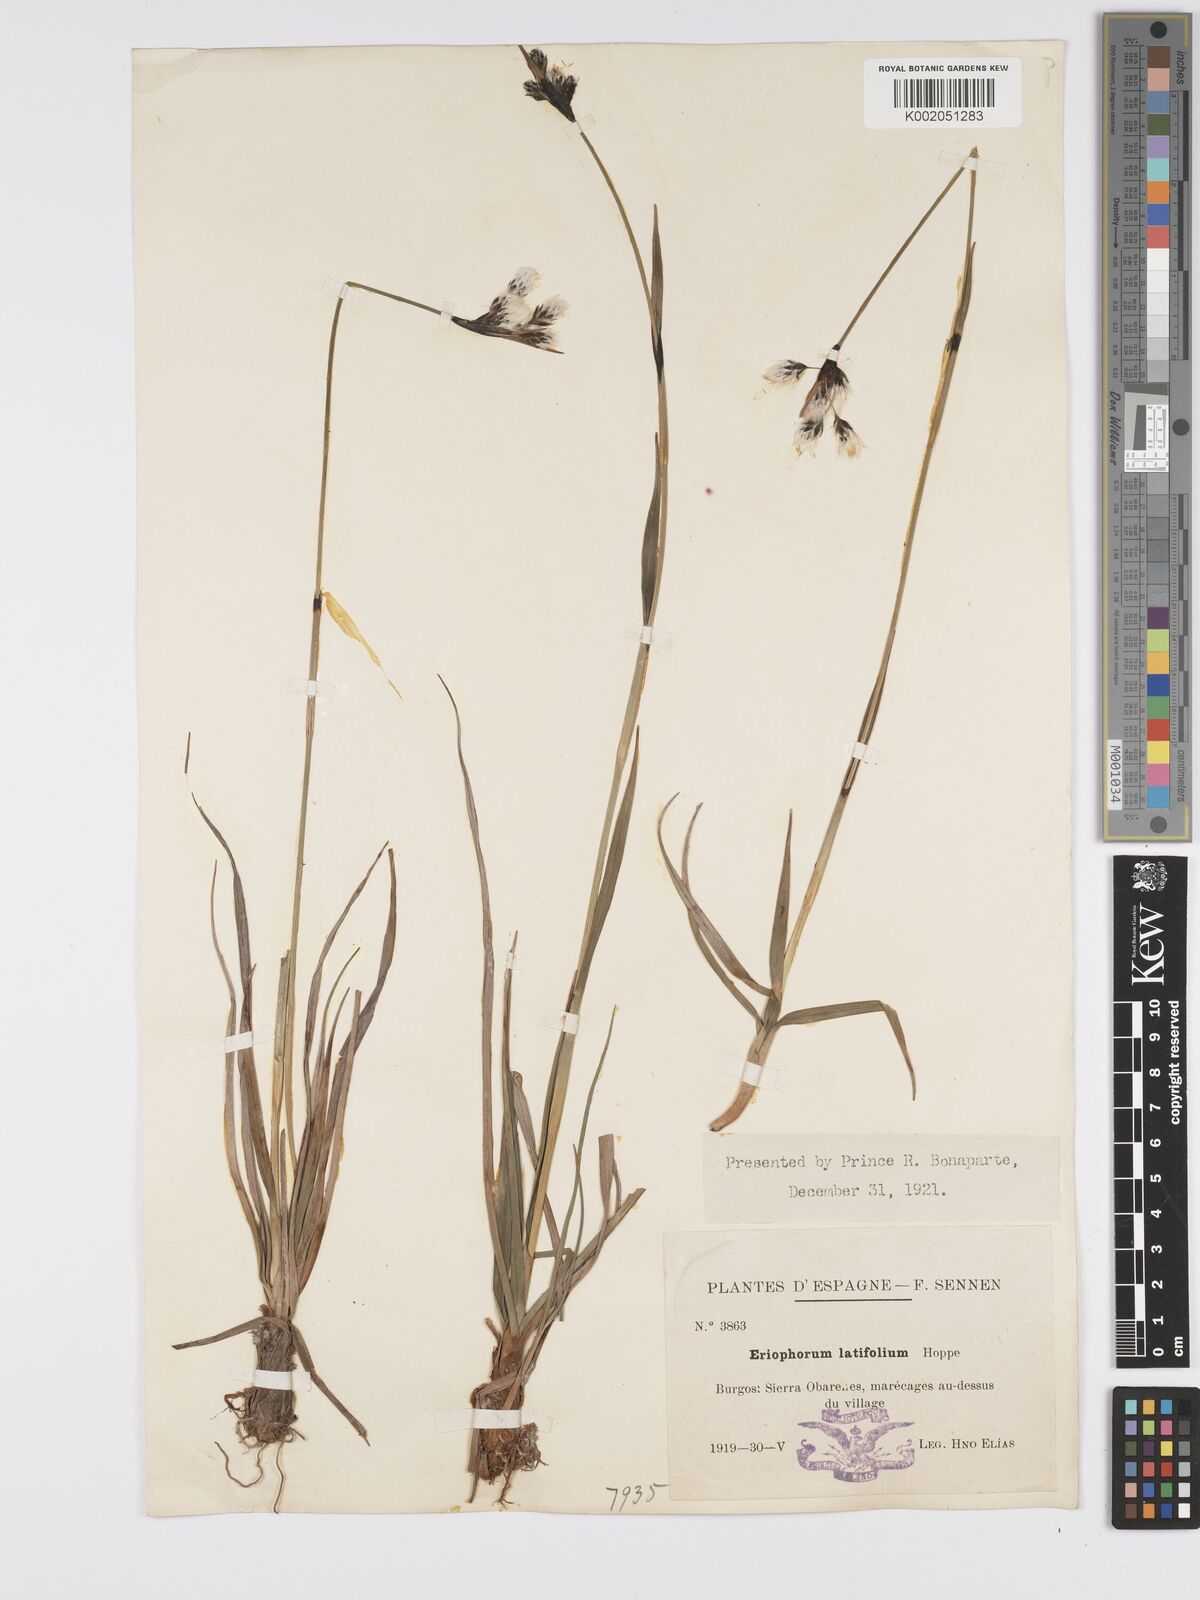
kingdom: Plantae
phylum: Tracheophyta
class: Liliopsida
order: Poales
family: Cyperaceae
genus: Eriophorum
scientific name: Eriophorum latifolium
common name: Broad-leaved cottongrass
